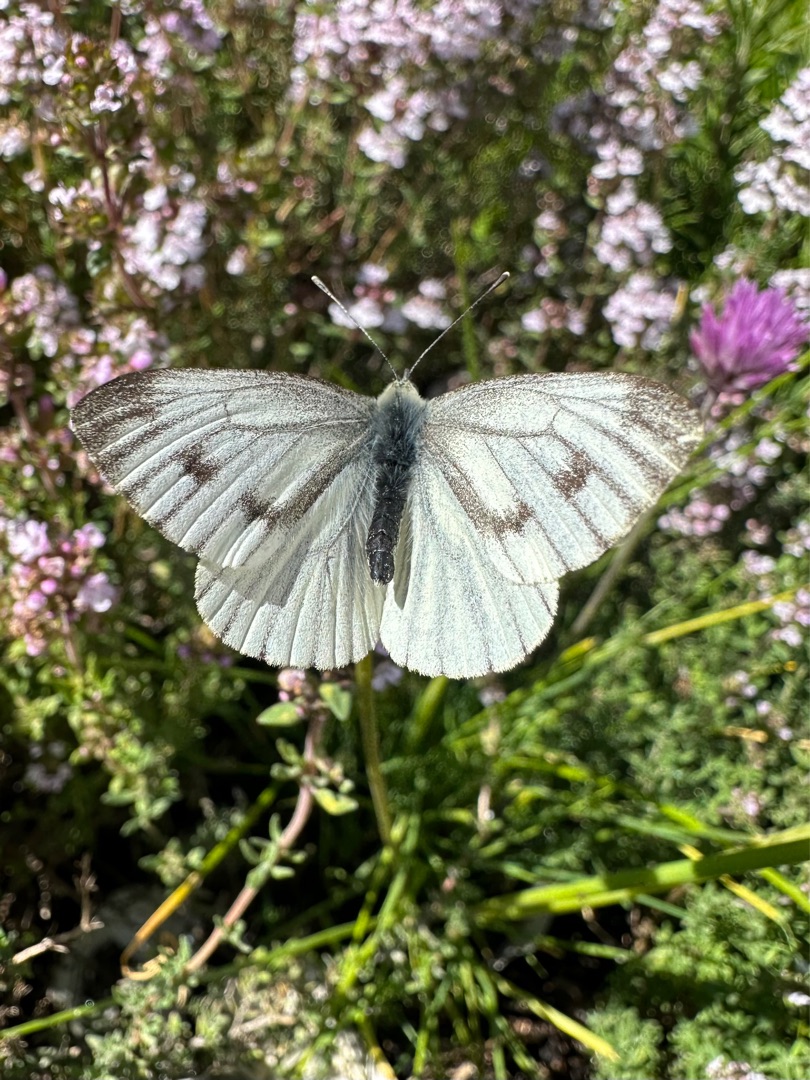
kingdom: Animalia
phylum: Arthropoda
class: Insecta
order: Lepidoptera
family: Pieridae
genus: Pieris
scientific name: Pieris napi
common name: Grønåret kålsommerfugl
